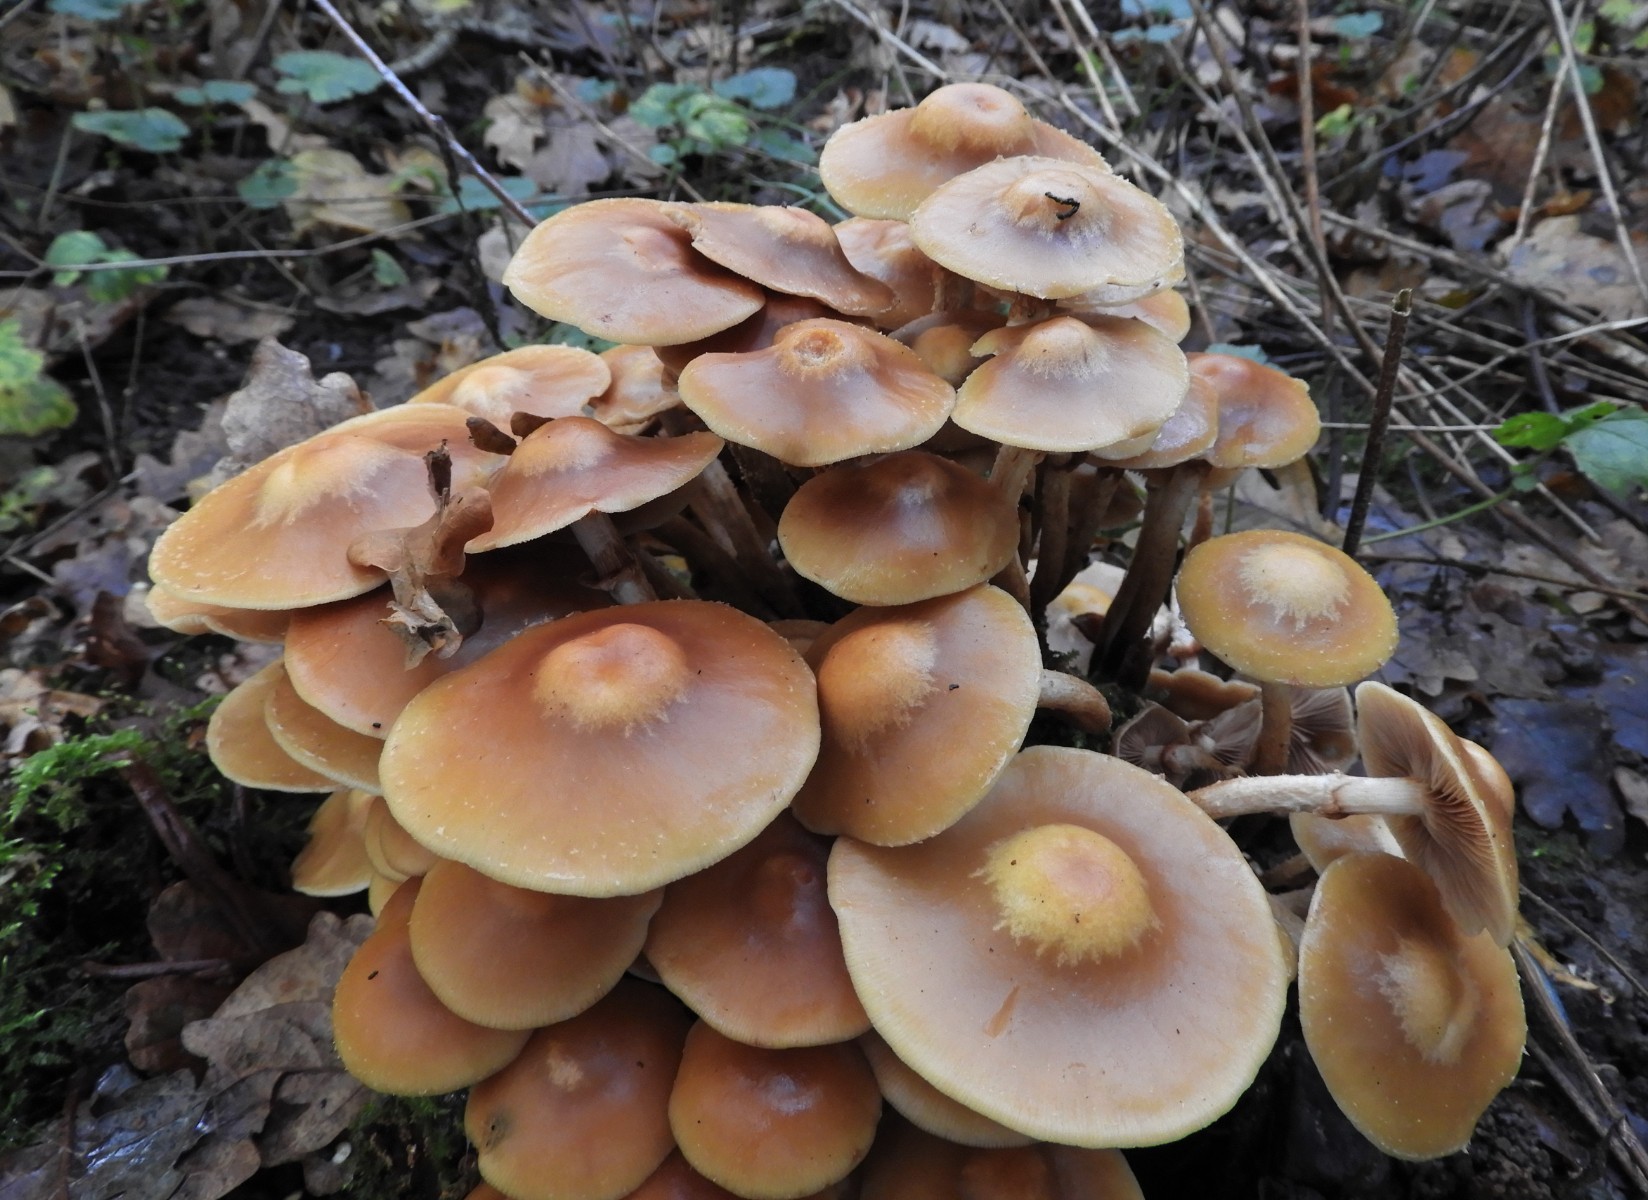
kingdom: Fungi
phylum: Basidiomycota
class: Agaricomycetes
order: Agaricales
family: Strophariaceae
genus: Kuehneromyces
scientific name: Kuehneromyces mutabilis
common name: foranderlig skælhat
